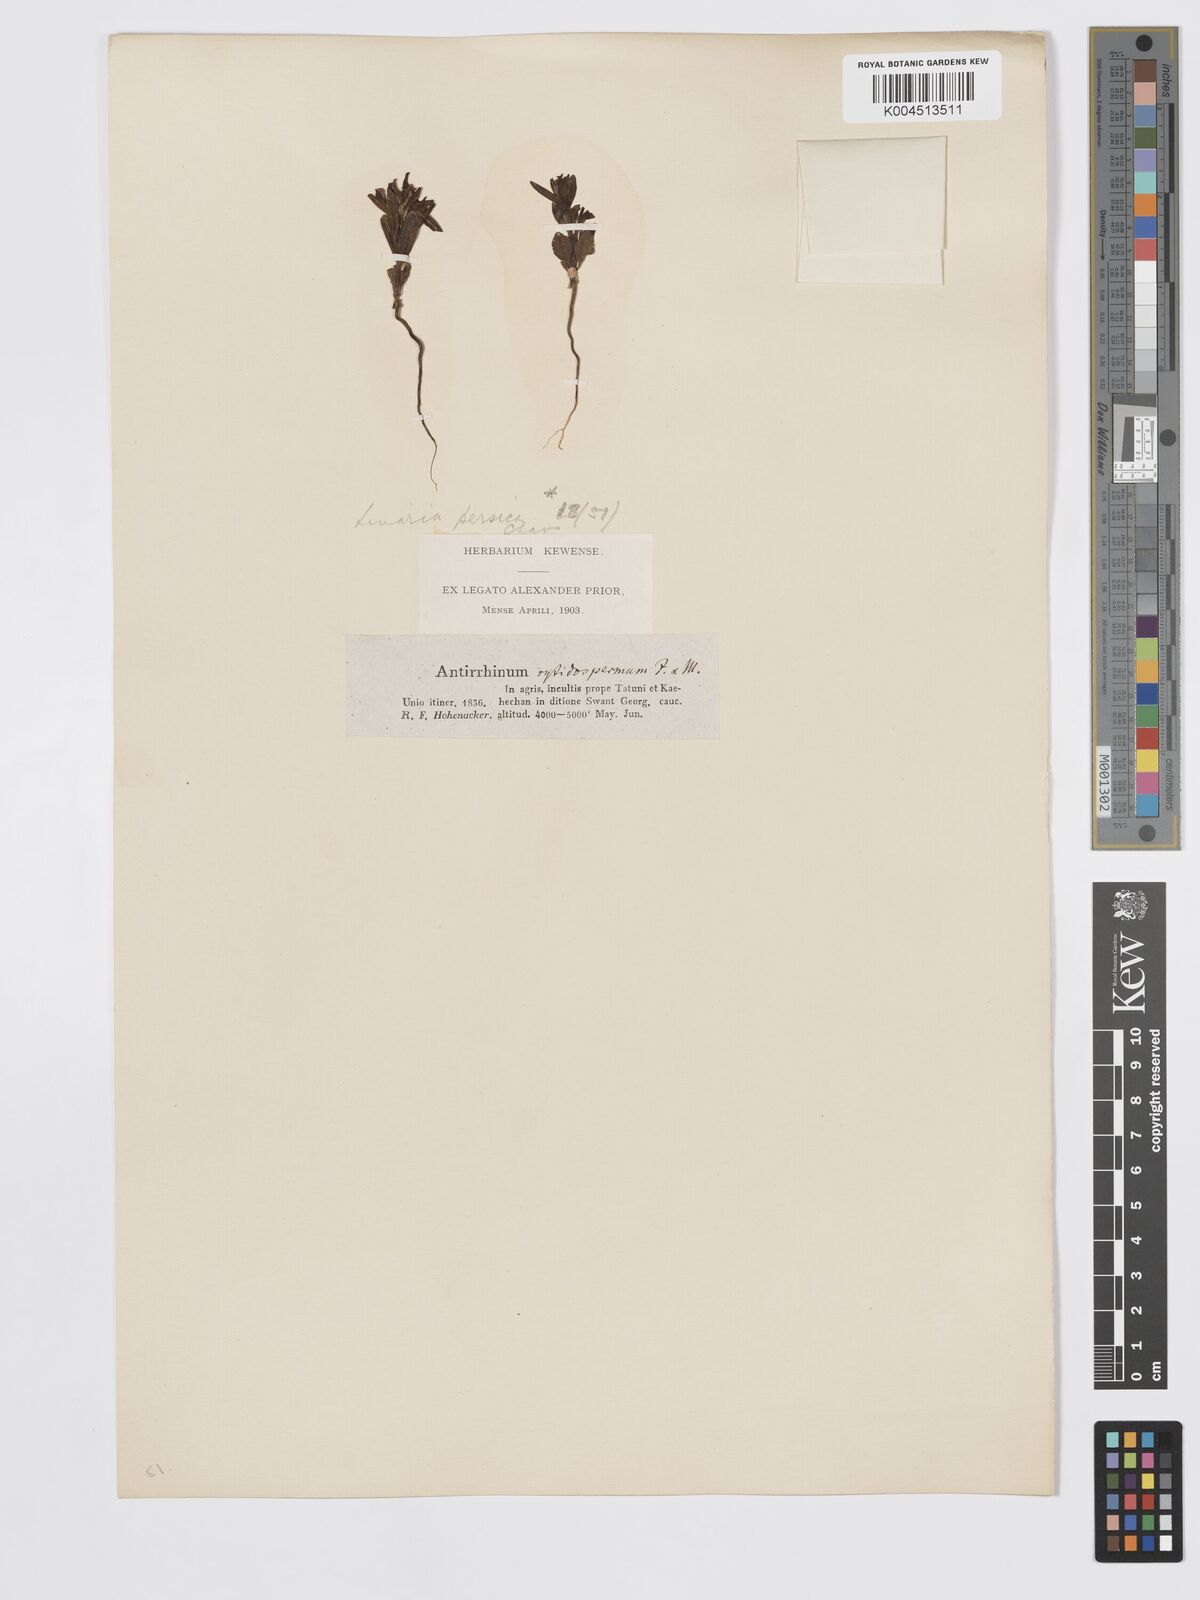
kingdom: Plantae
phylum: Tracheophyta
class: Magnoliopsida
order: Lamiales
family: Plantaginaceae
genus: Chaenorhinum
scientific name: Chaenorhinum calycinum
